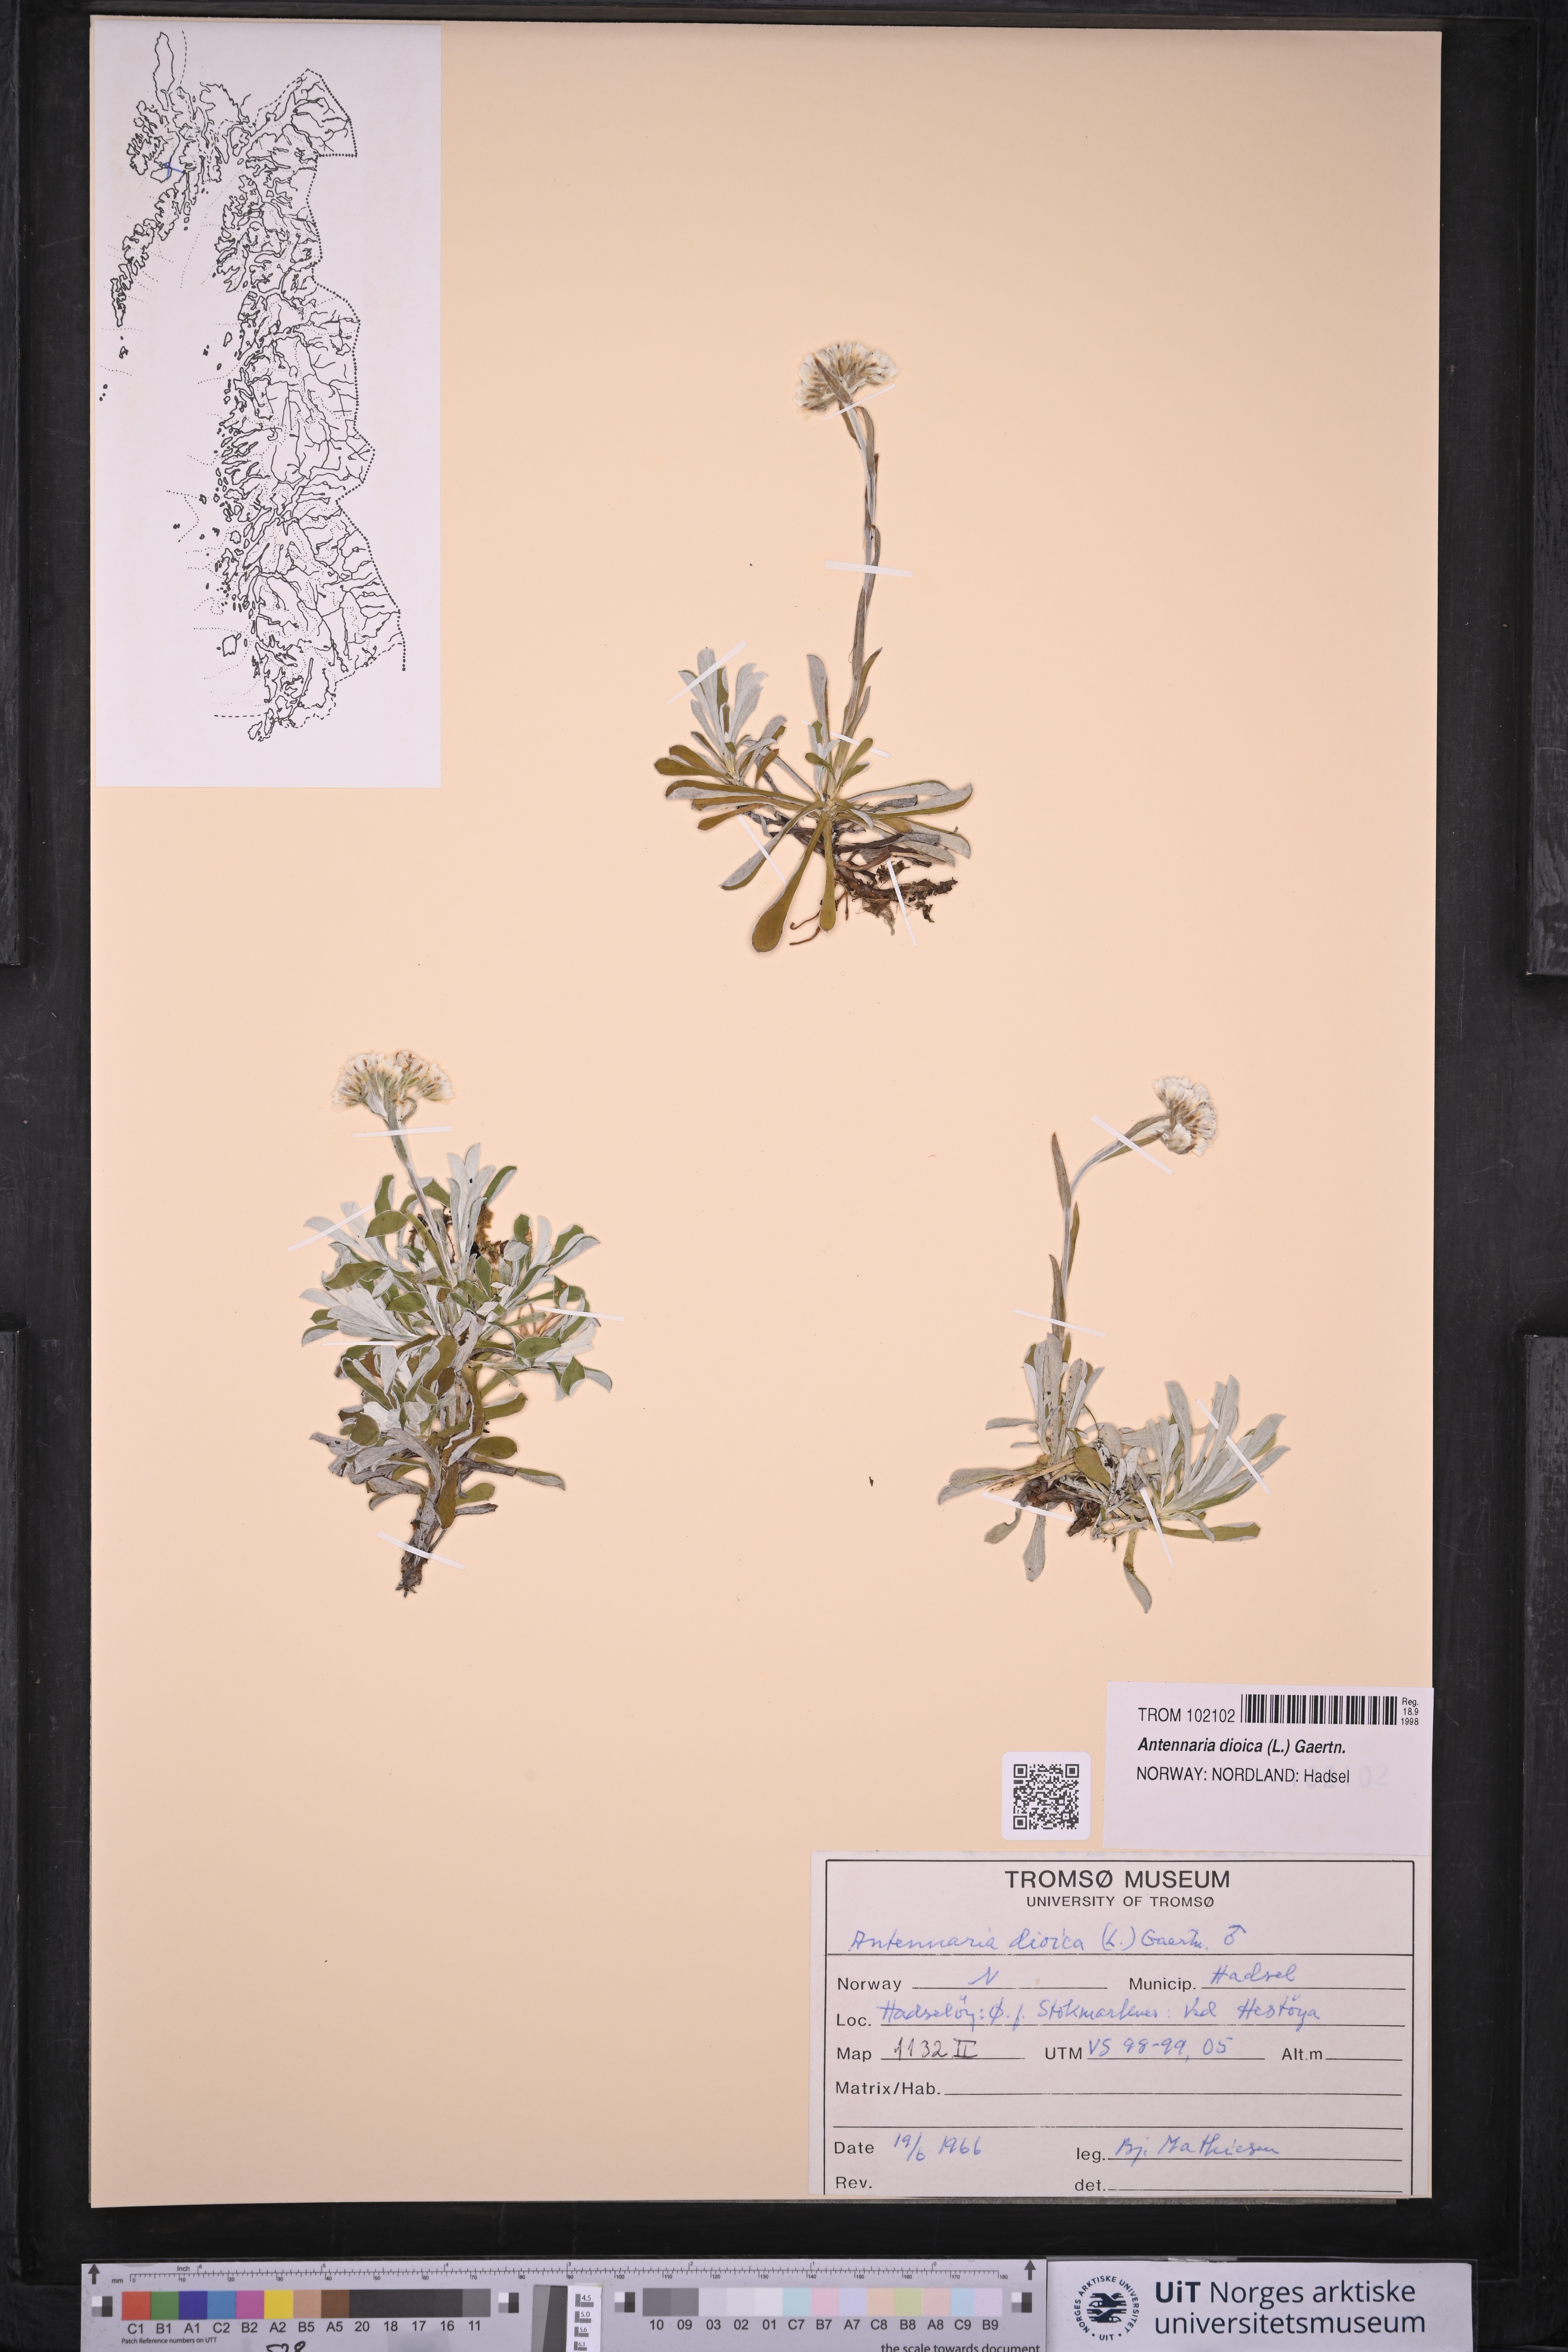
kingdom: Plantae
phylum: Tracheophyta
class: Magnoliopsida
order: Asterales
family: Asteraceae
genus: Antennaria
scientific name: Antennaria dioica
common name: Mountain everlasting
